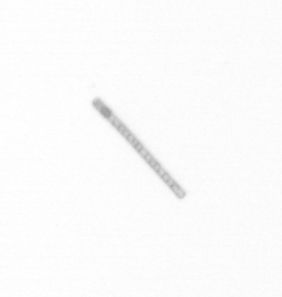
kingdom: Chromista
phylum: Ochrophyta
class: Bacillariophyceae
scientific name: Bacillariophyceae
